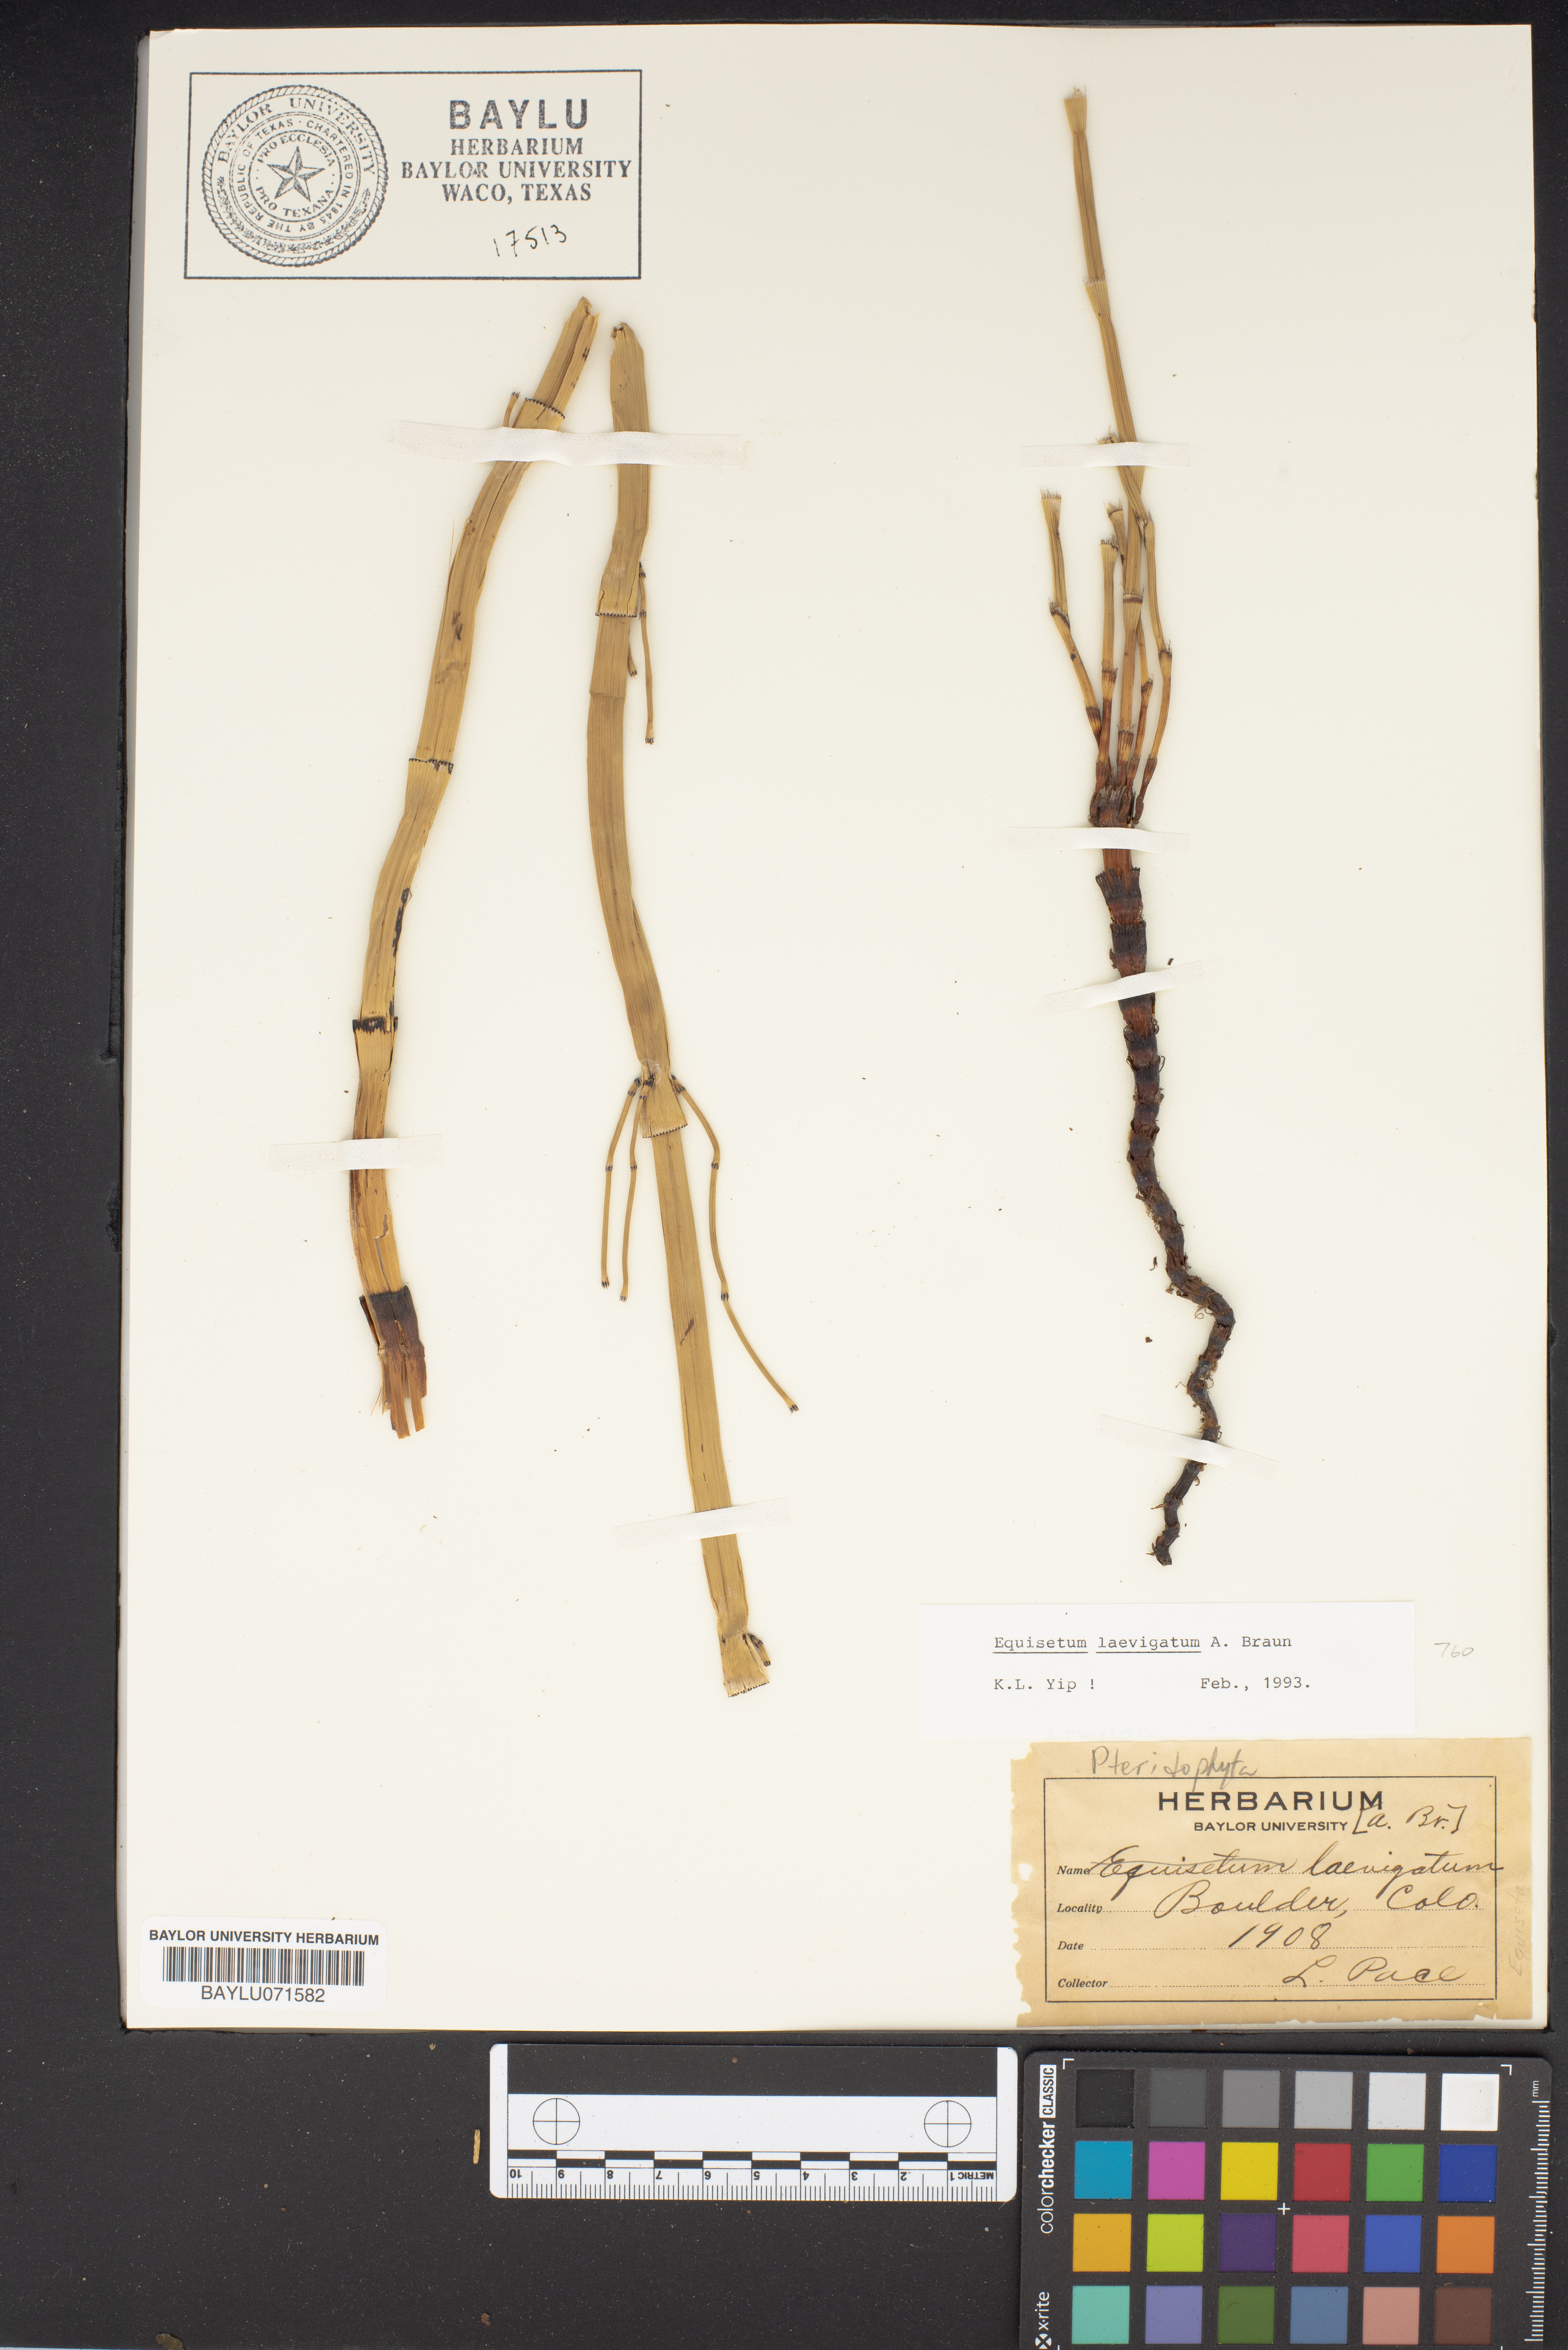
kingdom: Plantae
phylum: Tracheophyta
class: Polypodiopsida
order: Equisetales
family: Equisetaceae
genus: Equisetum
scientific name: Equisetum laevigatum
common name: Smooth scouring-rush
